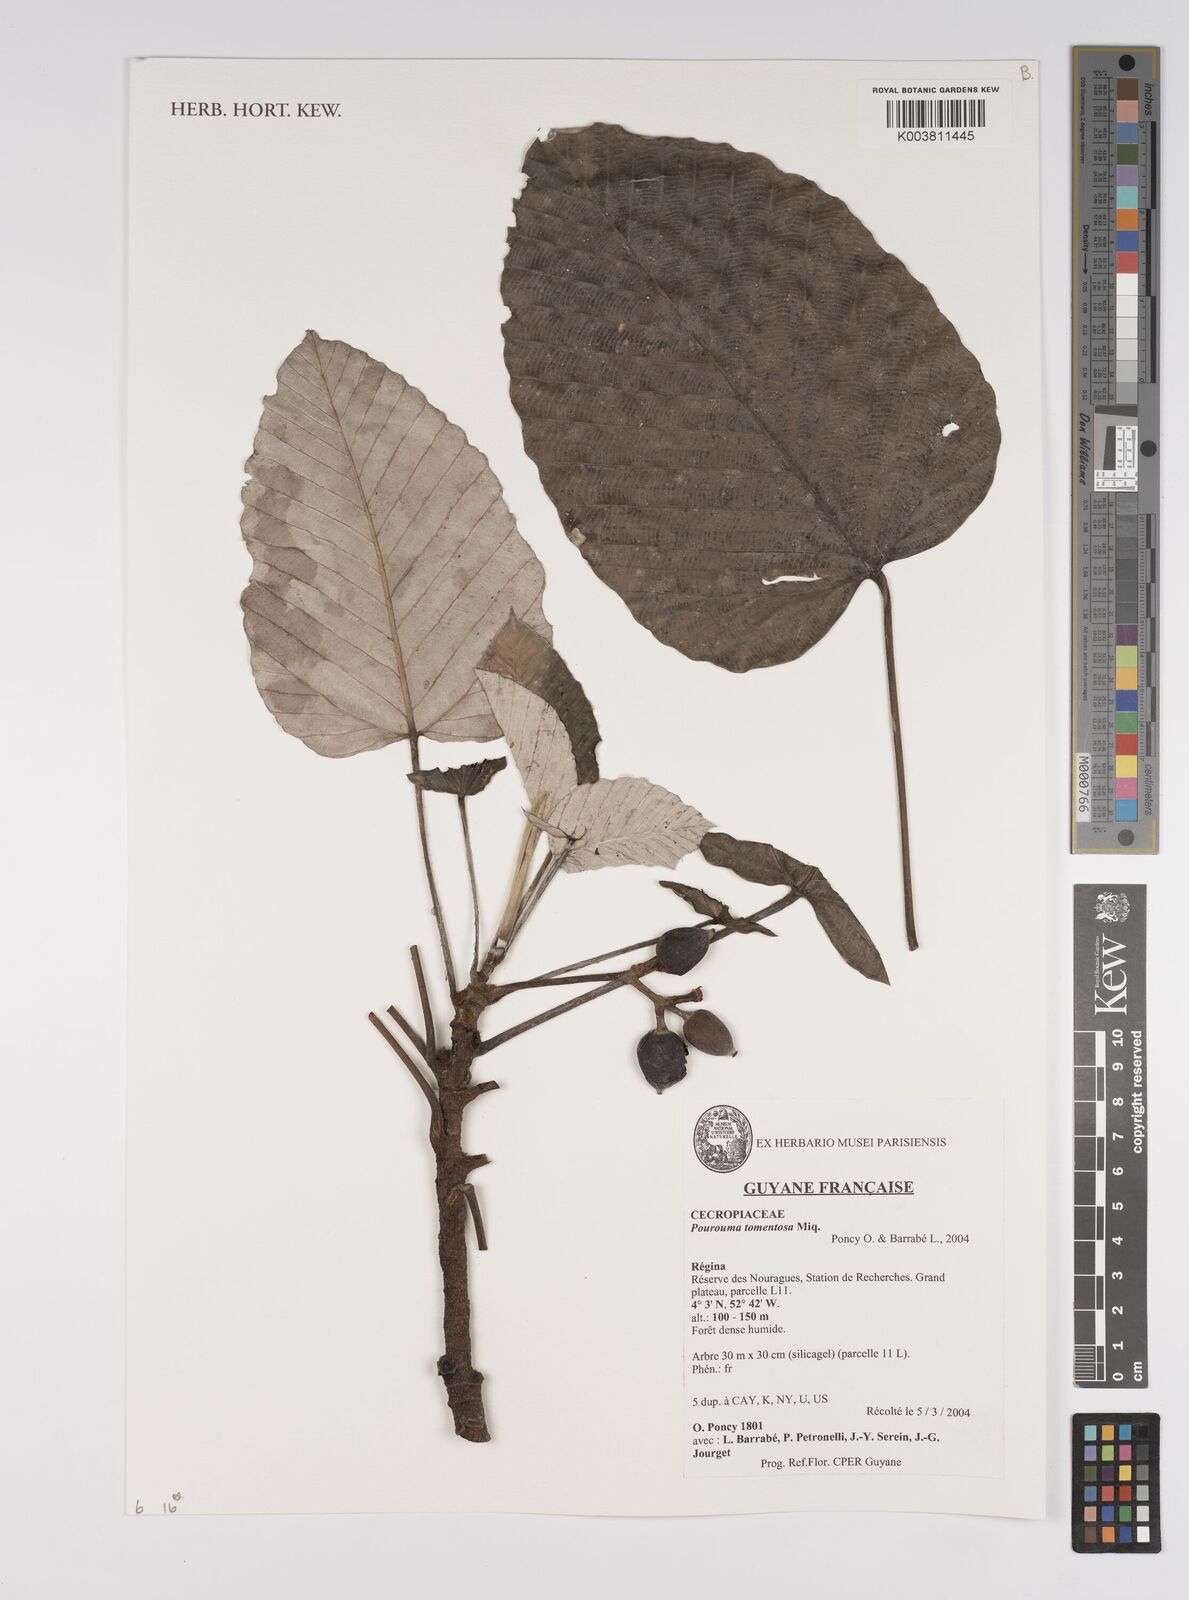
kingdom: Plantae
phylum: Tracheophyta
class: Magnoliopsida
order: Rosales
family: Urticaceae
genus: Pourouma
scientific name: Pourouma tomentosa
